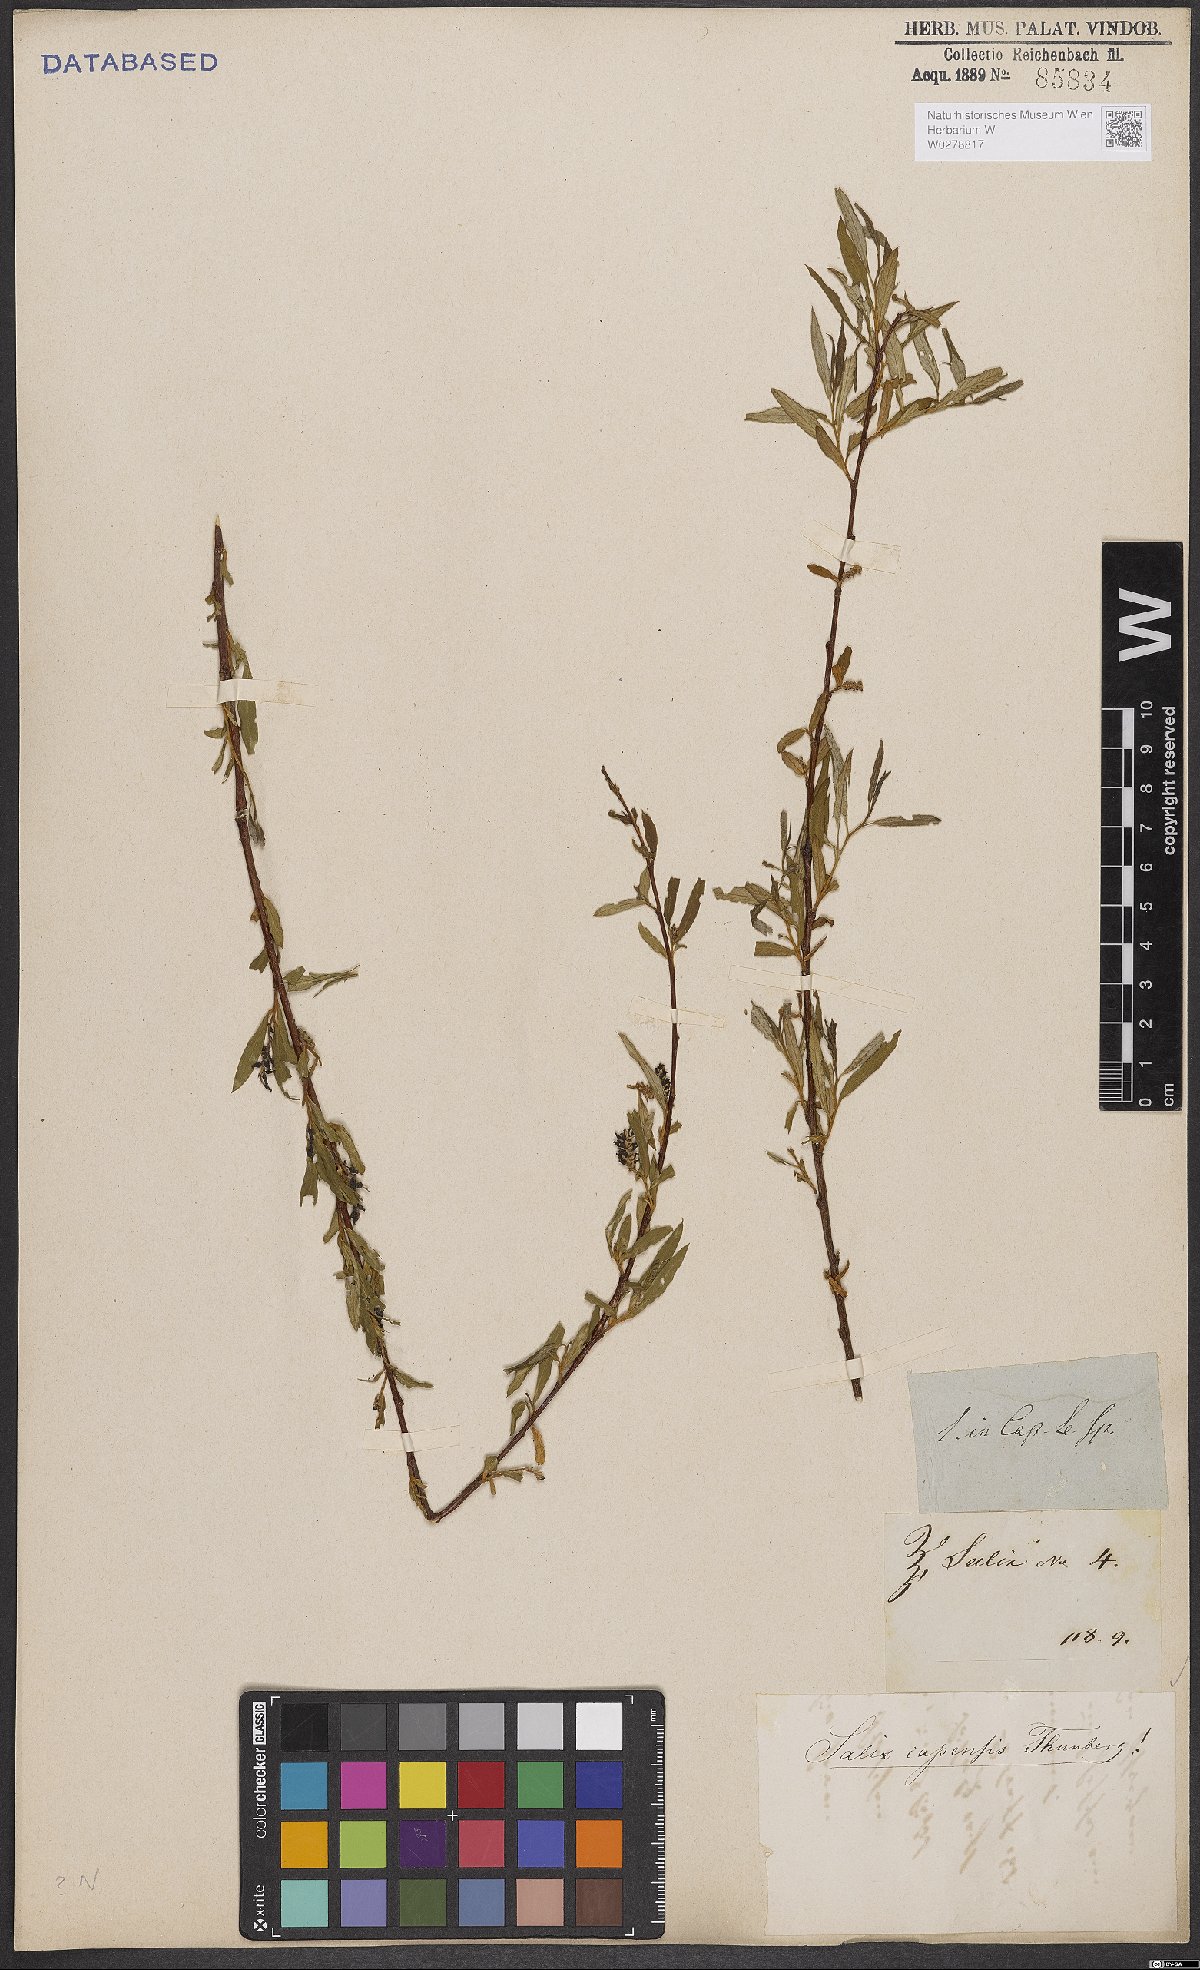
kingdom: Plantae
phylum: Tracheophyta
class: Magnoliopsida
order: Malpighiales
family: Salicaceae
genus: Salix
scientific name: Salix mucronata
